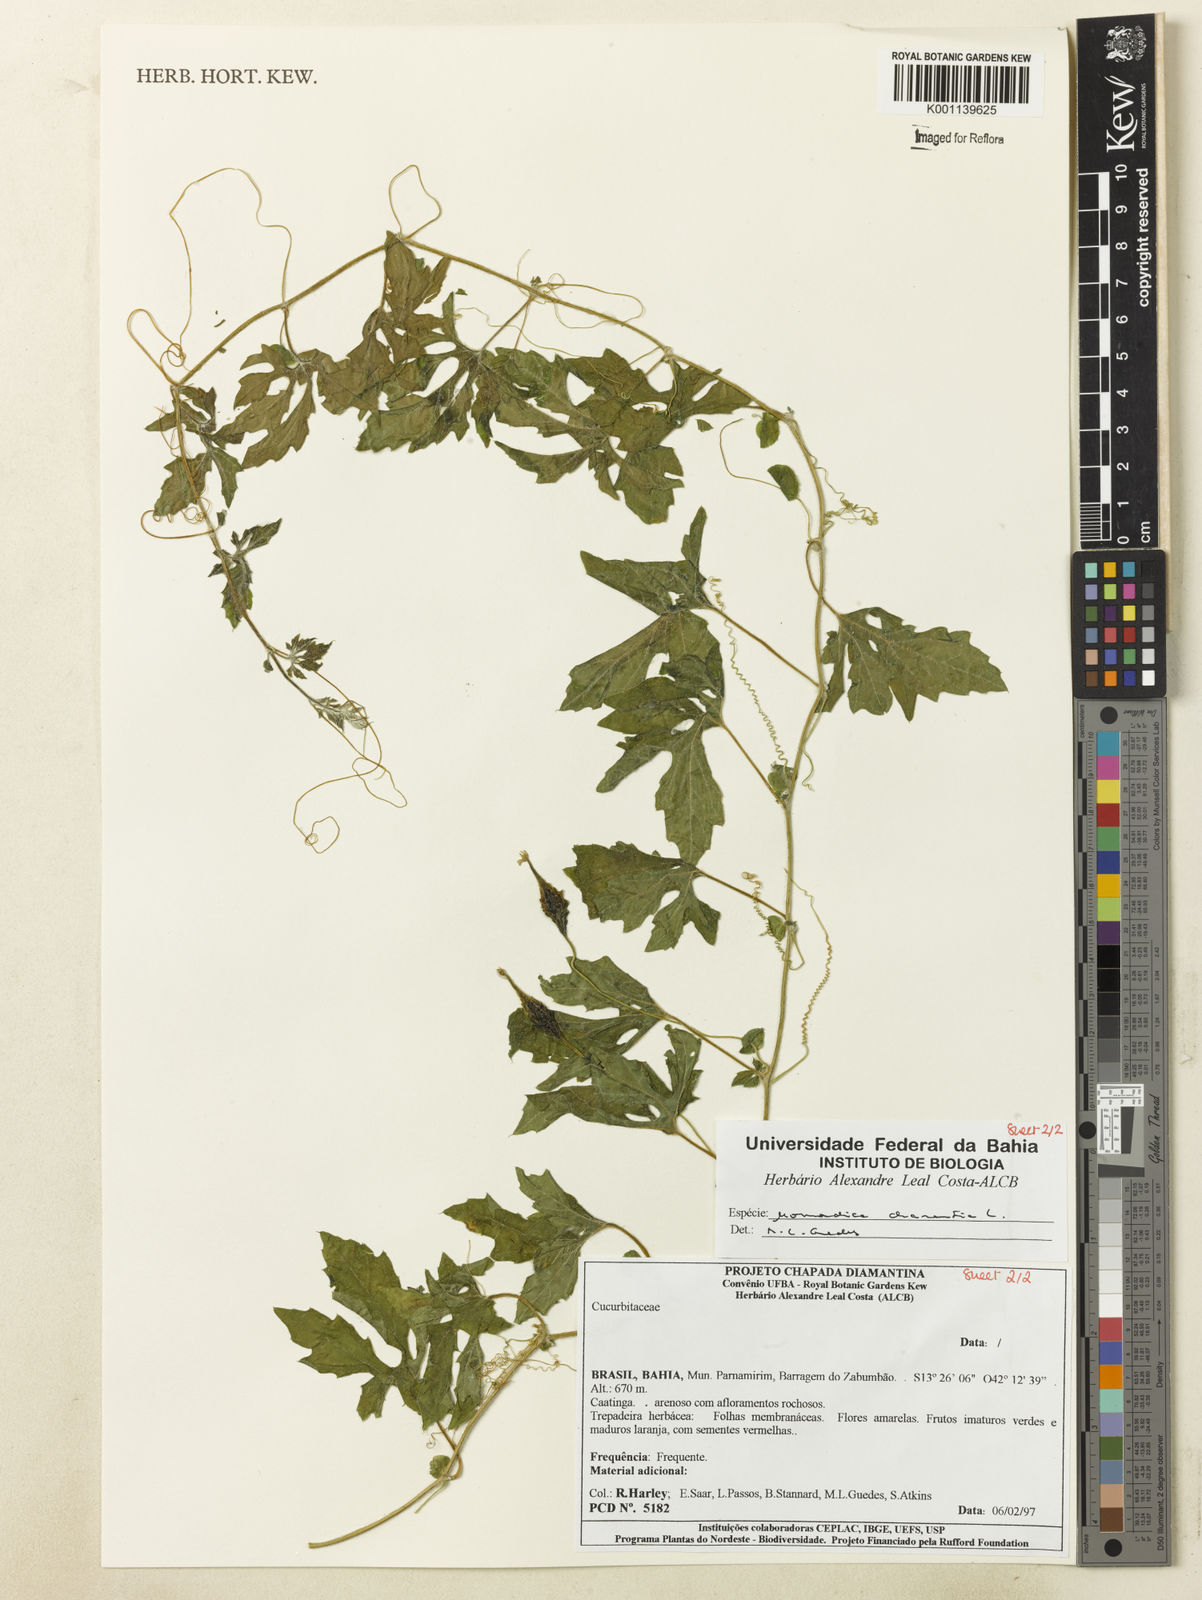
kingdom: Plantae
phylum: Tracheophyta
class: Magnoliopsida
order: Cucurbitales
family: Cucurbitaceae
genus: Momordica
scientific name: Momordica charantia
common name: Balsampear
